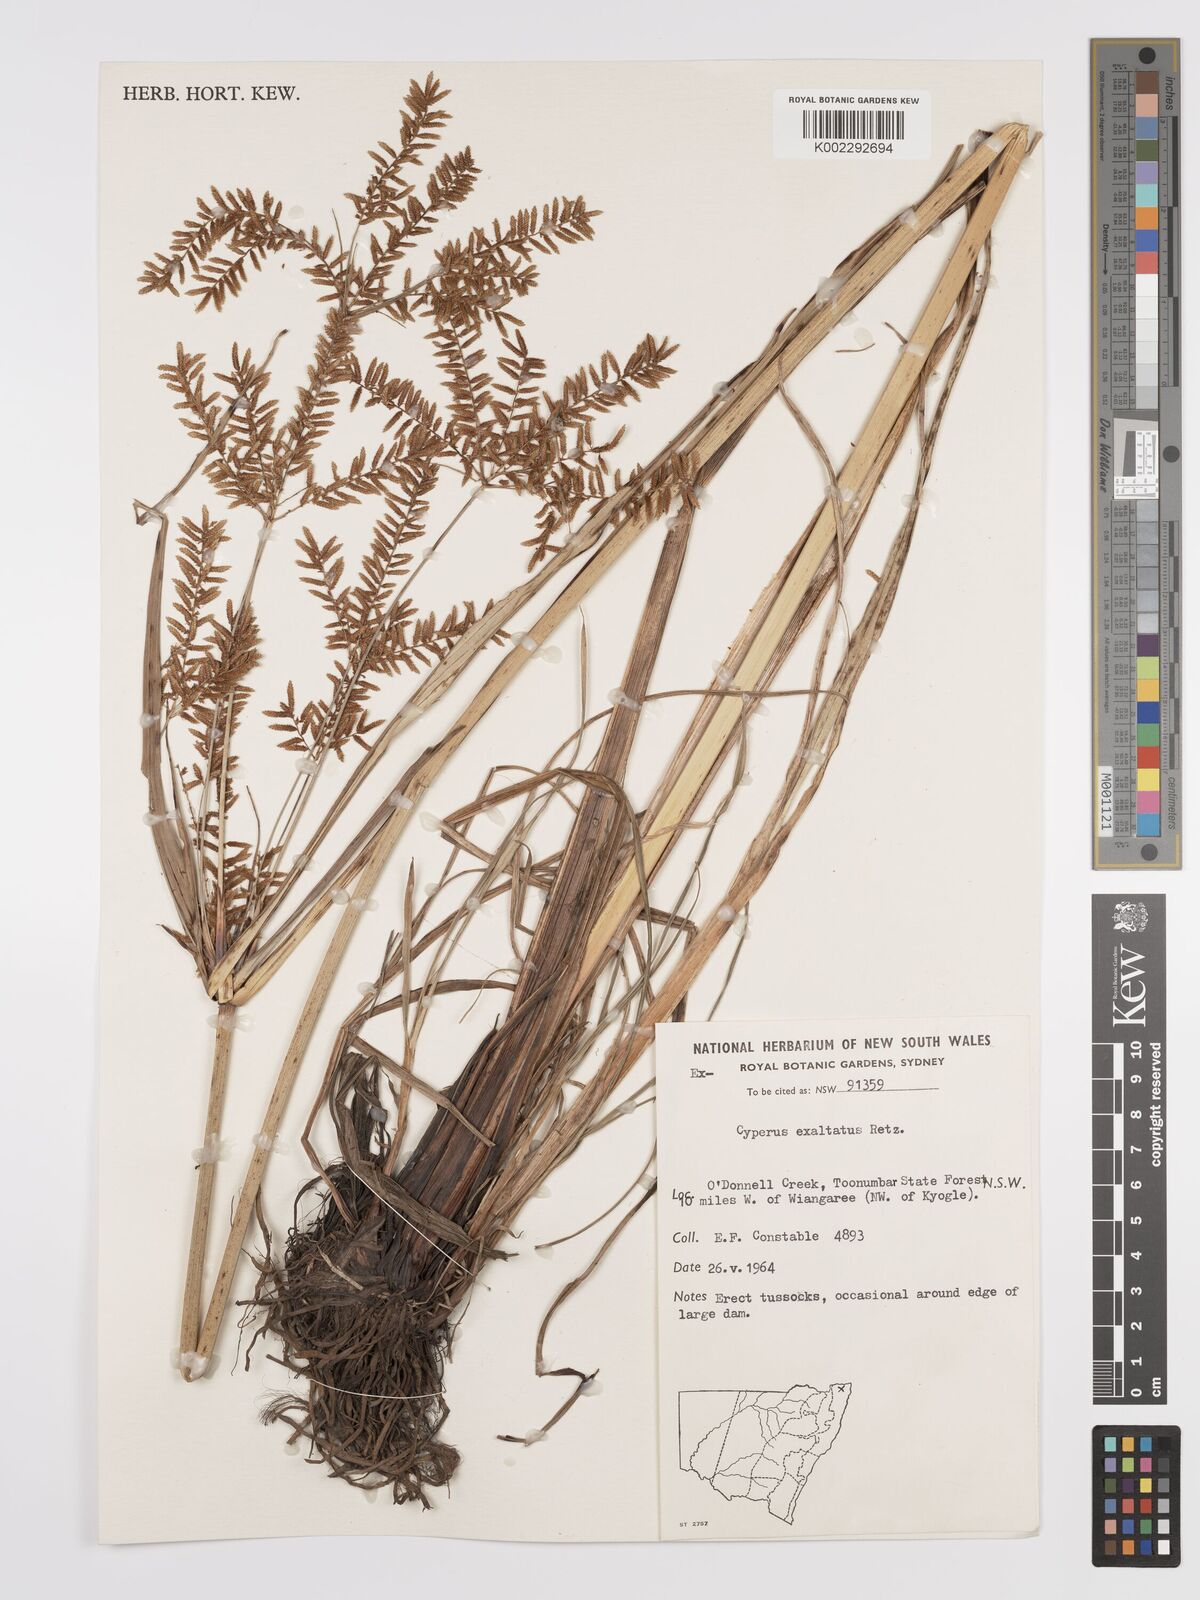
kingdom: Plantae
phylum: Tracheophyta
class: Liliopsida
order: Poales
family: Cyperaceae
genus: Cyperus
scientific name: Cyperus exaltatus
